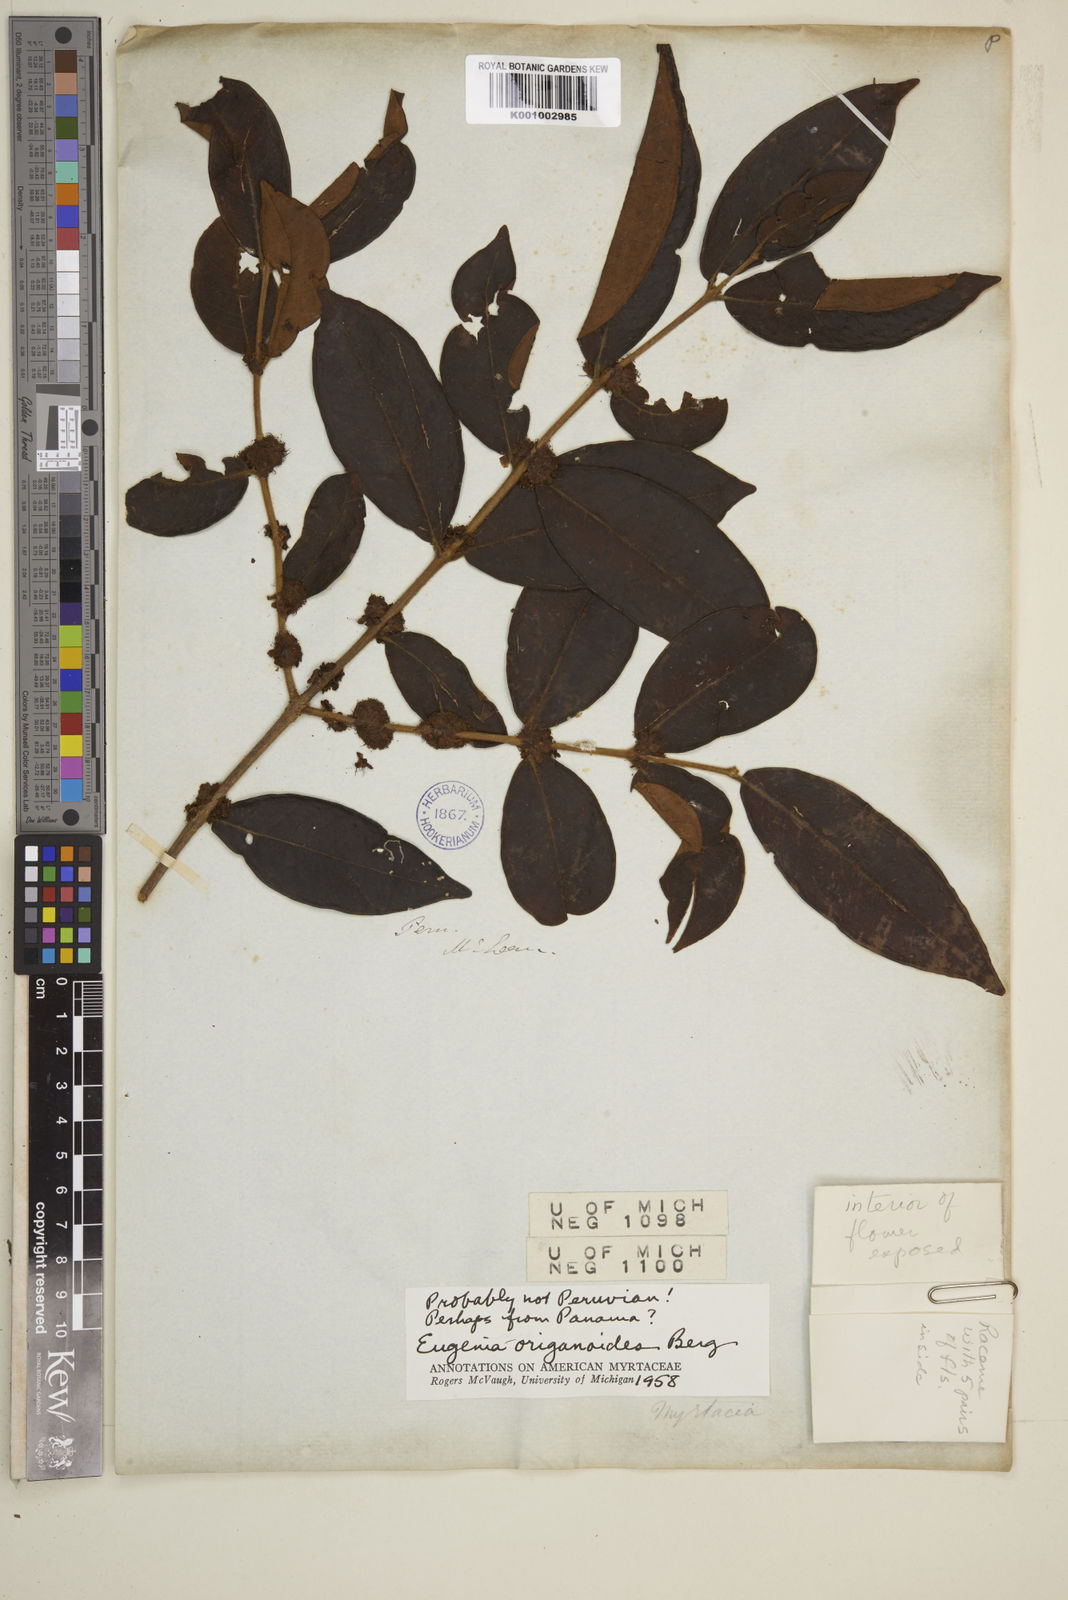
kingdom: Plantae
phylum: Tracheophyta
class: Magnoliopsida
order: Myrtales
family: Myrtaceae
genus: Eugenia
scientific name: Eugenia venezuelensis
